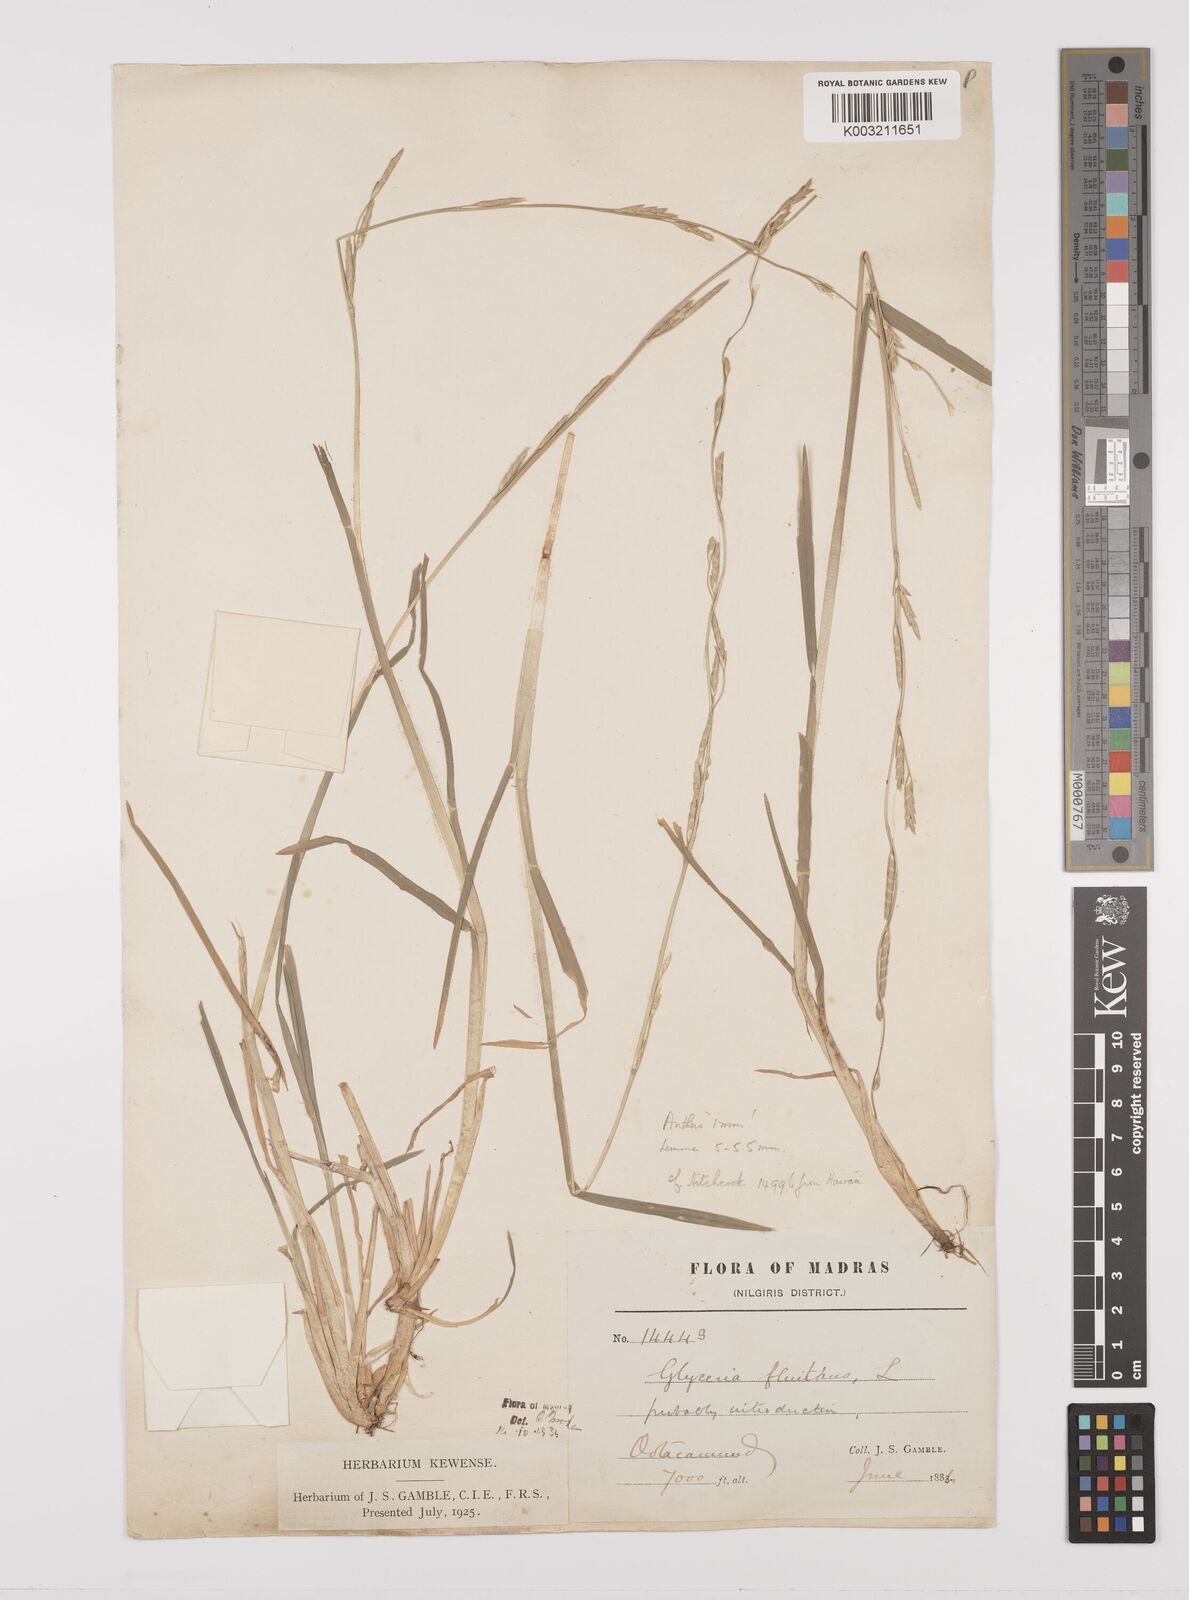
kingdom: Plantae
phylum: Tracheophyta
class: Liliopsida
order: Poales
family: Poaceae
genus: Glyceria
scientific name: Glyceria
